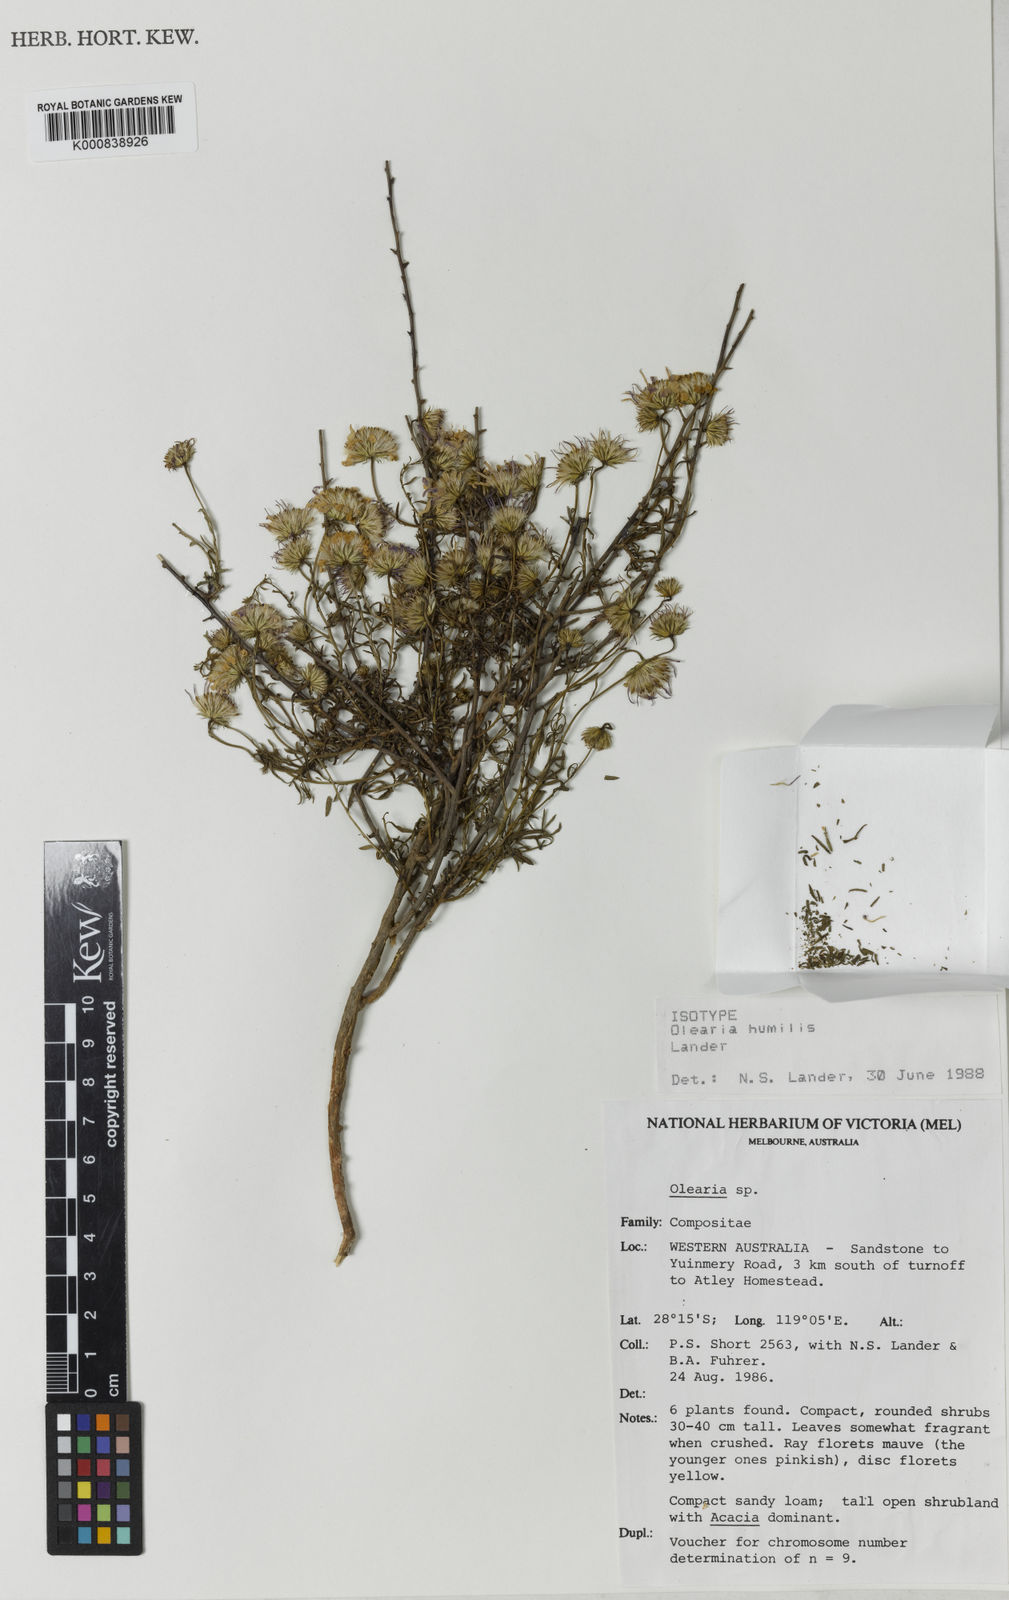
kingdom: Plantae
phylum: Tracheophyta
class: Magnoliopsida
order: Asterales
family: Asteraceae
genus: Landerolaria
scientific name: Landerolaria humilis
